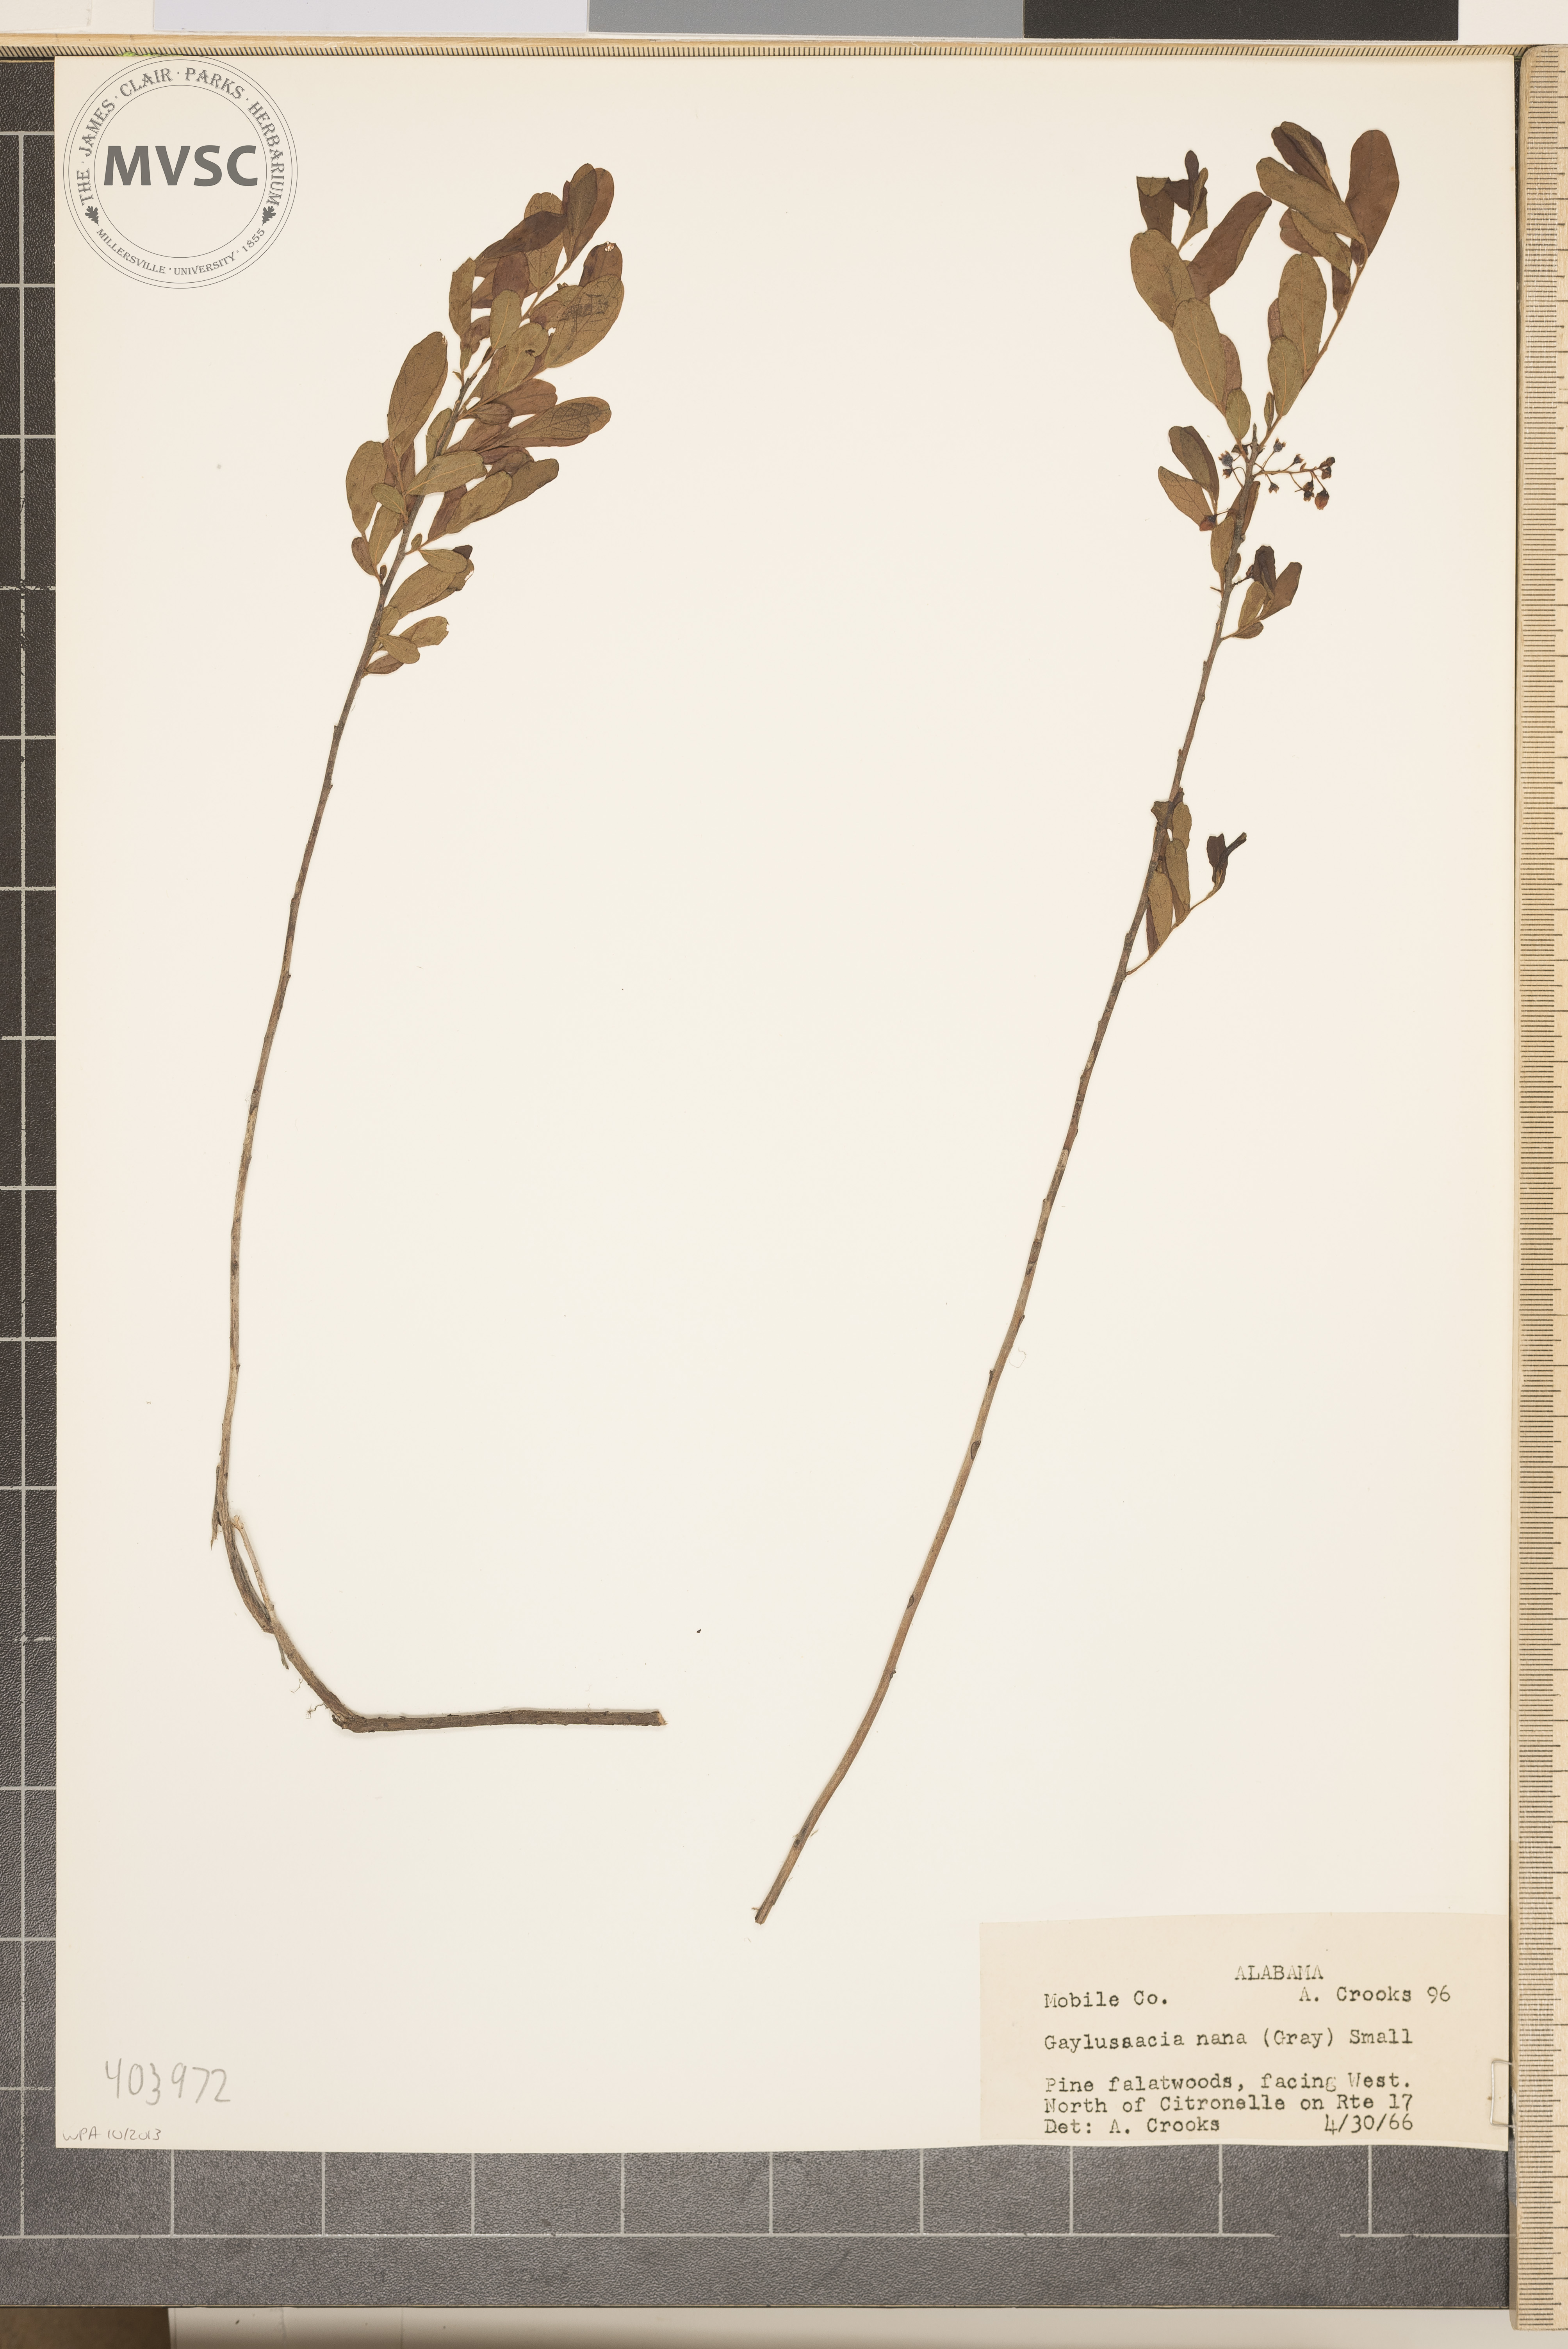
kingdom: Plantae
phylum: Tracheophyta
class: Magnoliopsida
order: Ericales
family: Ericaceae
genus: Gaylussacia
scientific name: Gaylussacia nana
